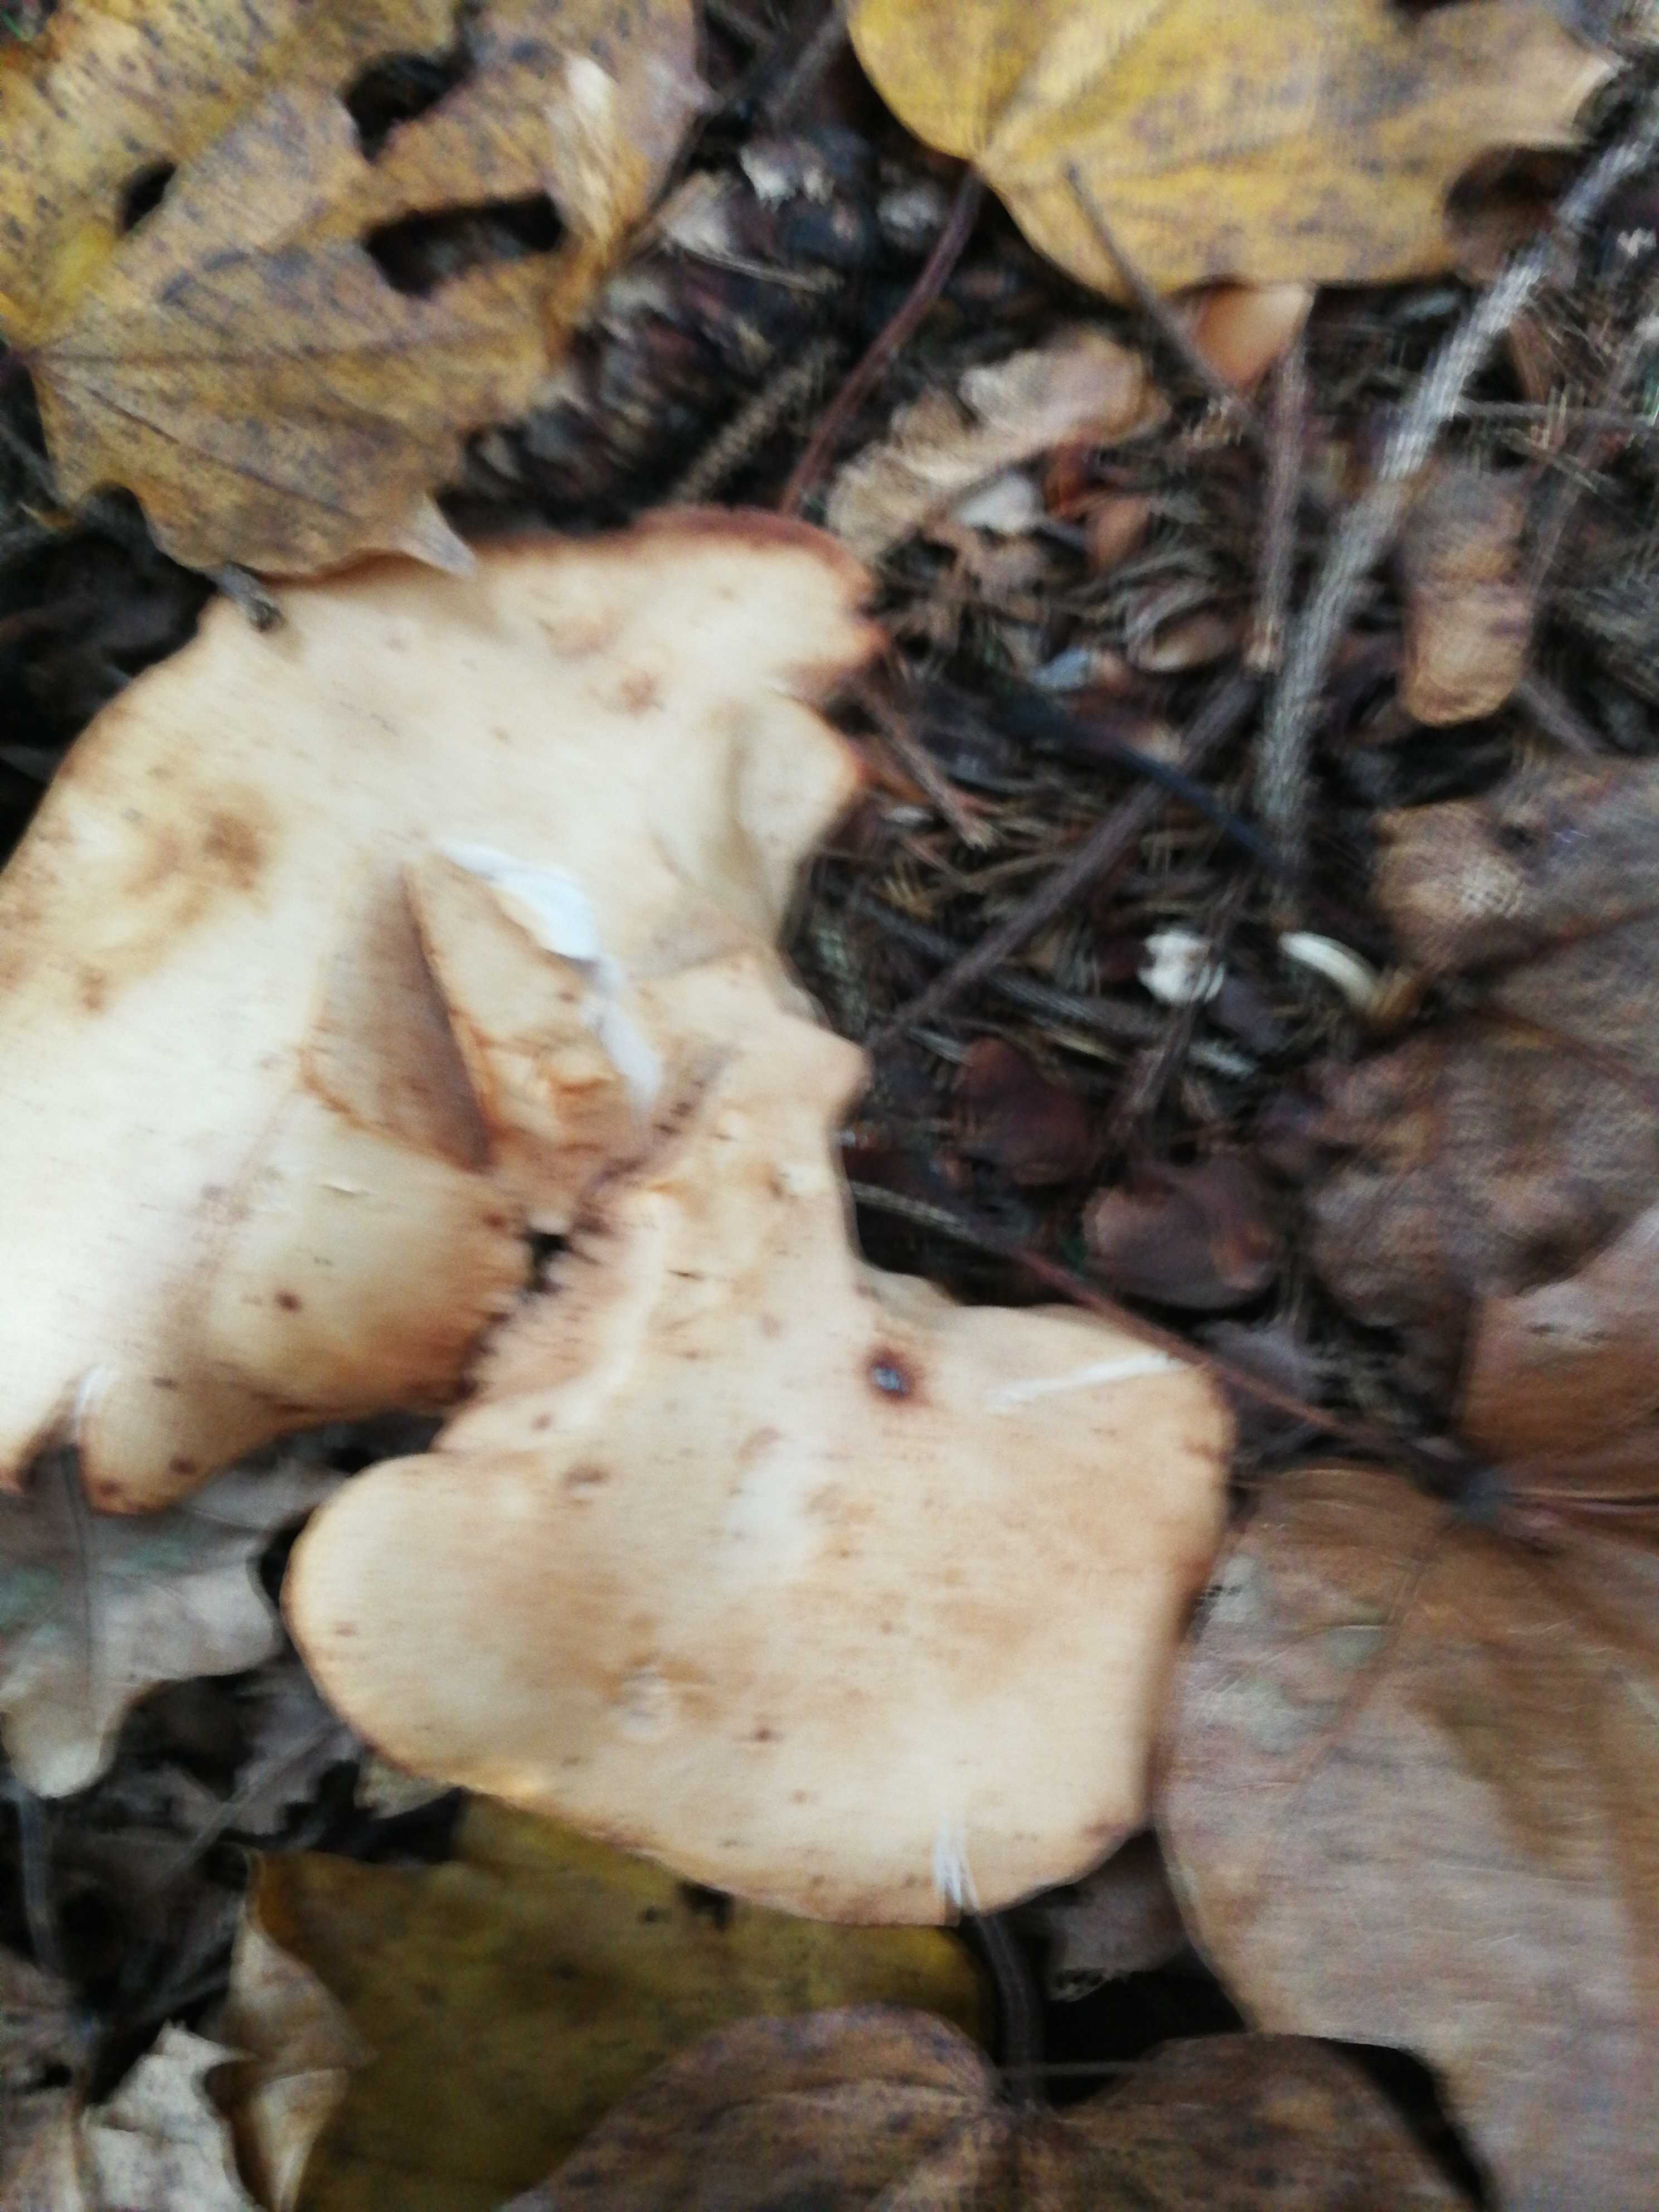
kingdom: Fungi
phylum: Basidiomycota
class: Agaricomycetes
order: Agaricales
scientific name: Agaricales
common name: champignonordenen
